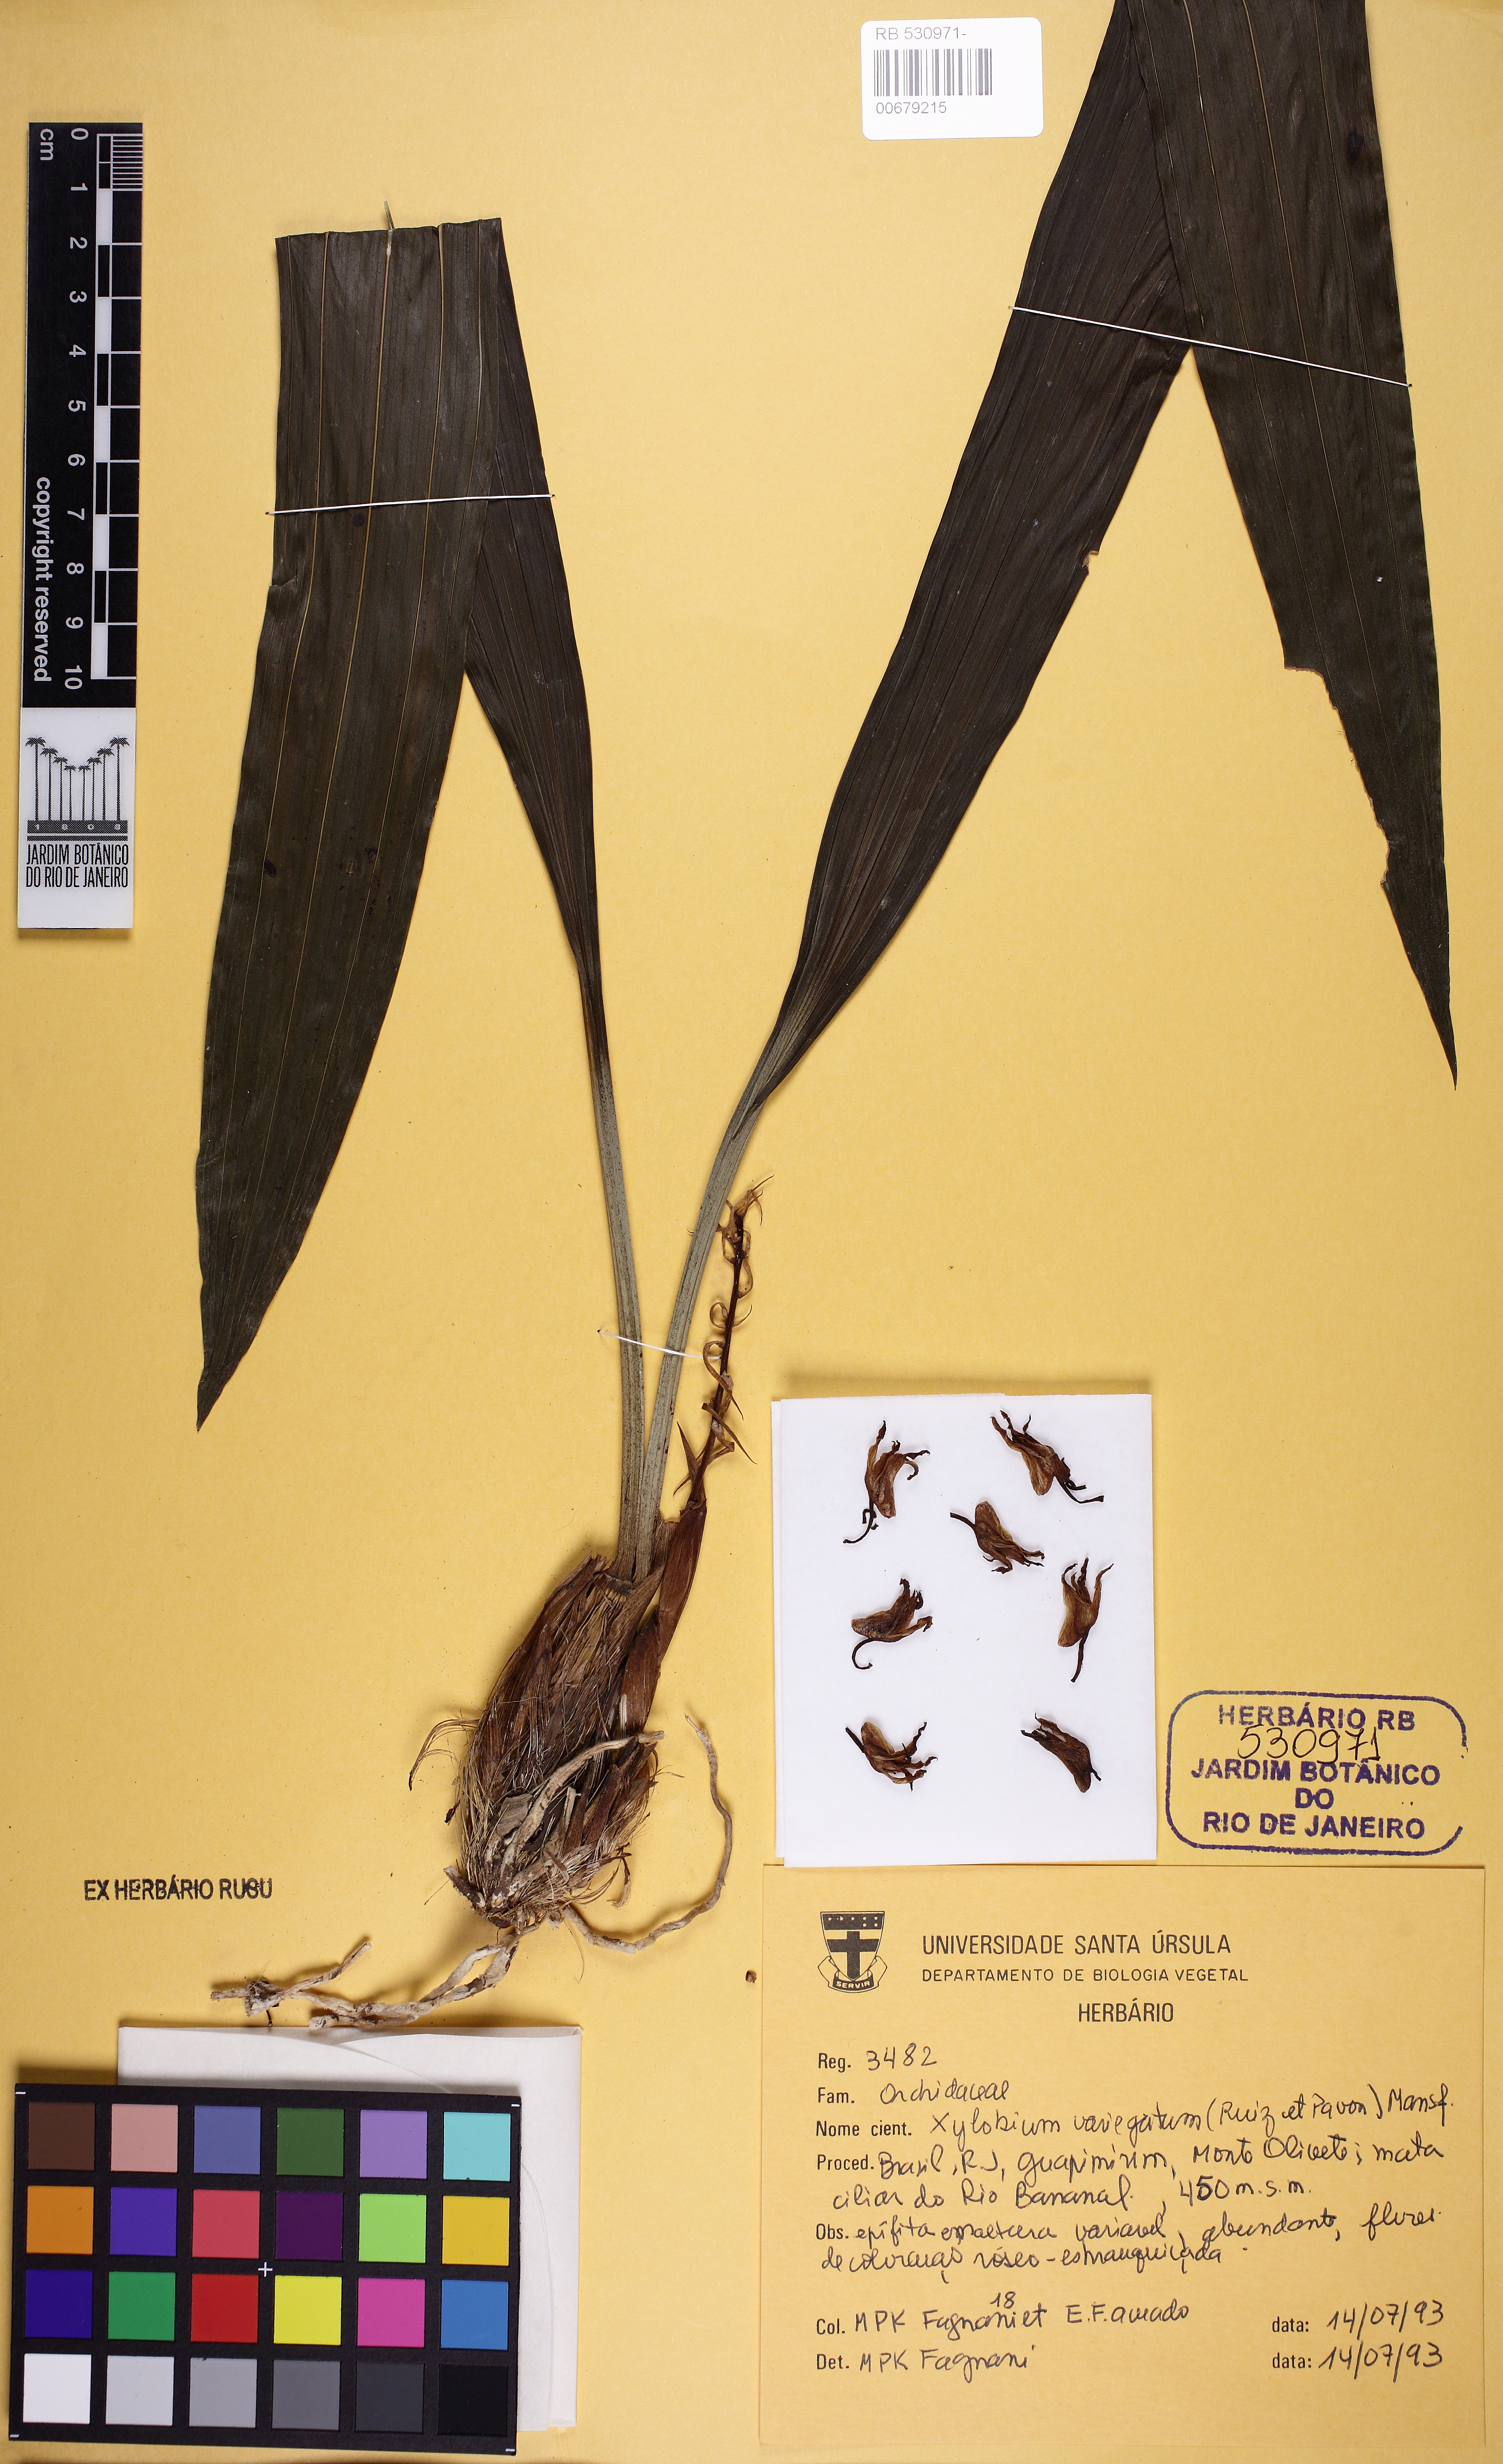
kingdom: Plantae
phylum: Tracheophyta
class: Liliopsida
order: Asparagales
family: Orchidaceae
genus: Xylobium
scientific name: Xylobium variegatum
